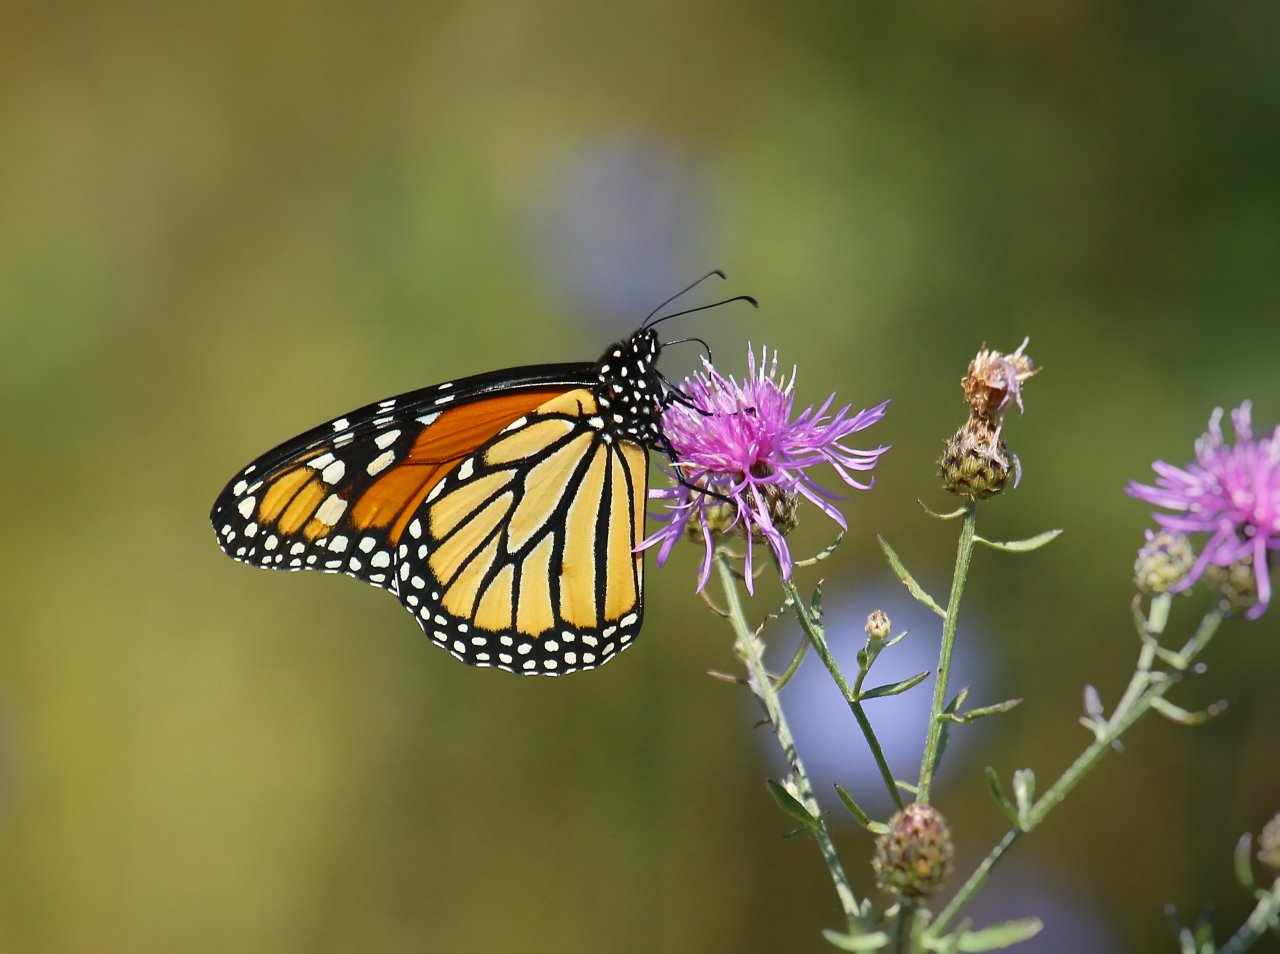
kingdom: Animalia
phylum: Arthropoda
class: Insecta
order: Lepidoptera
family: Nymphalidae
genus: Danaus
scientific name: Danaus plexippus
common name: Monarch
